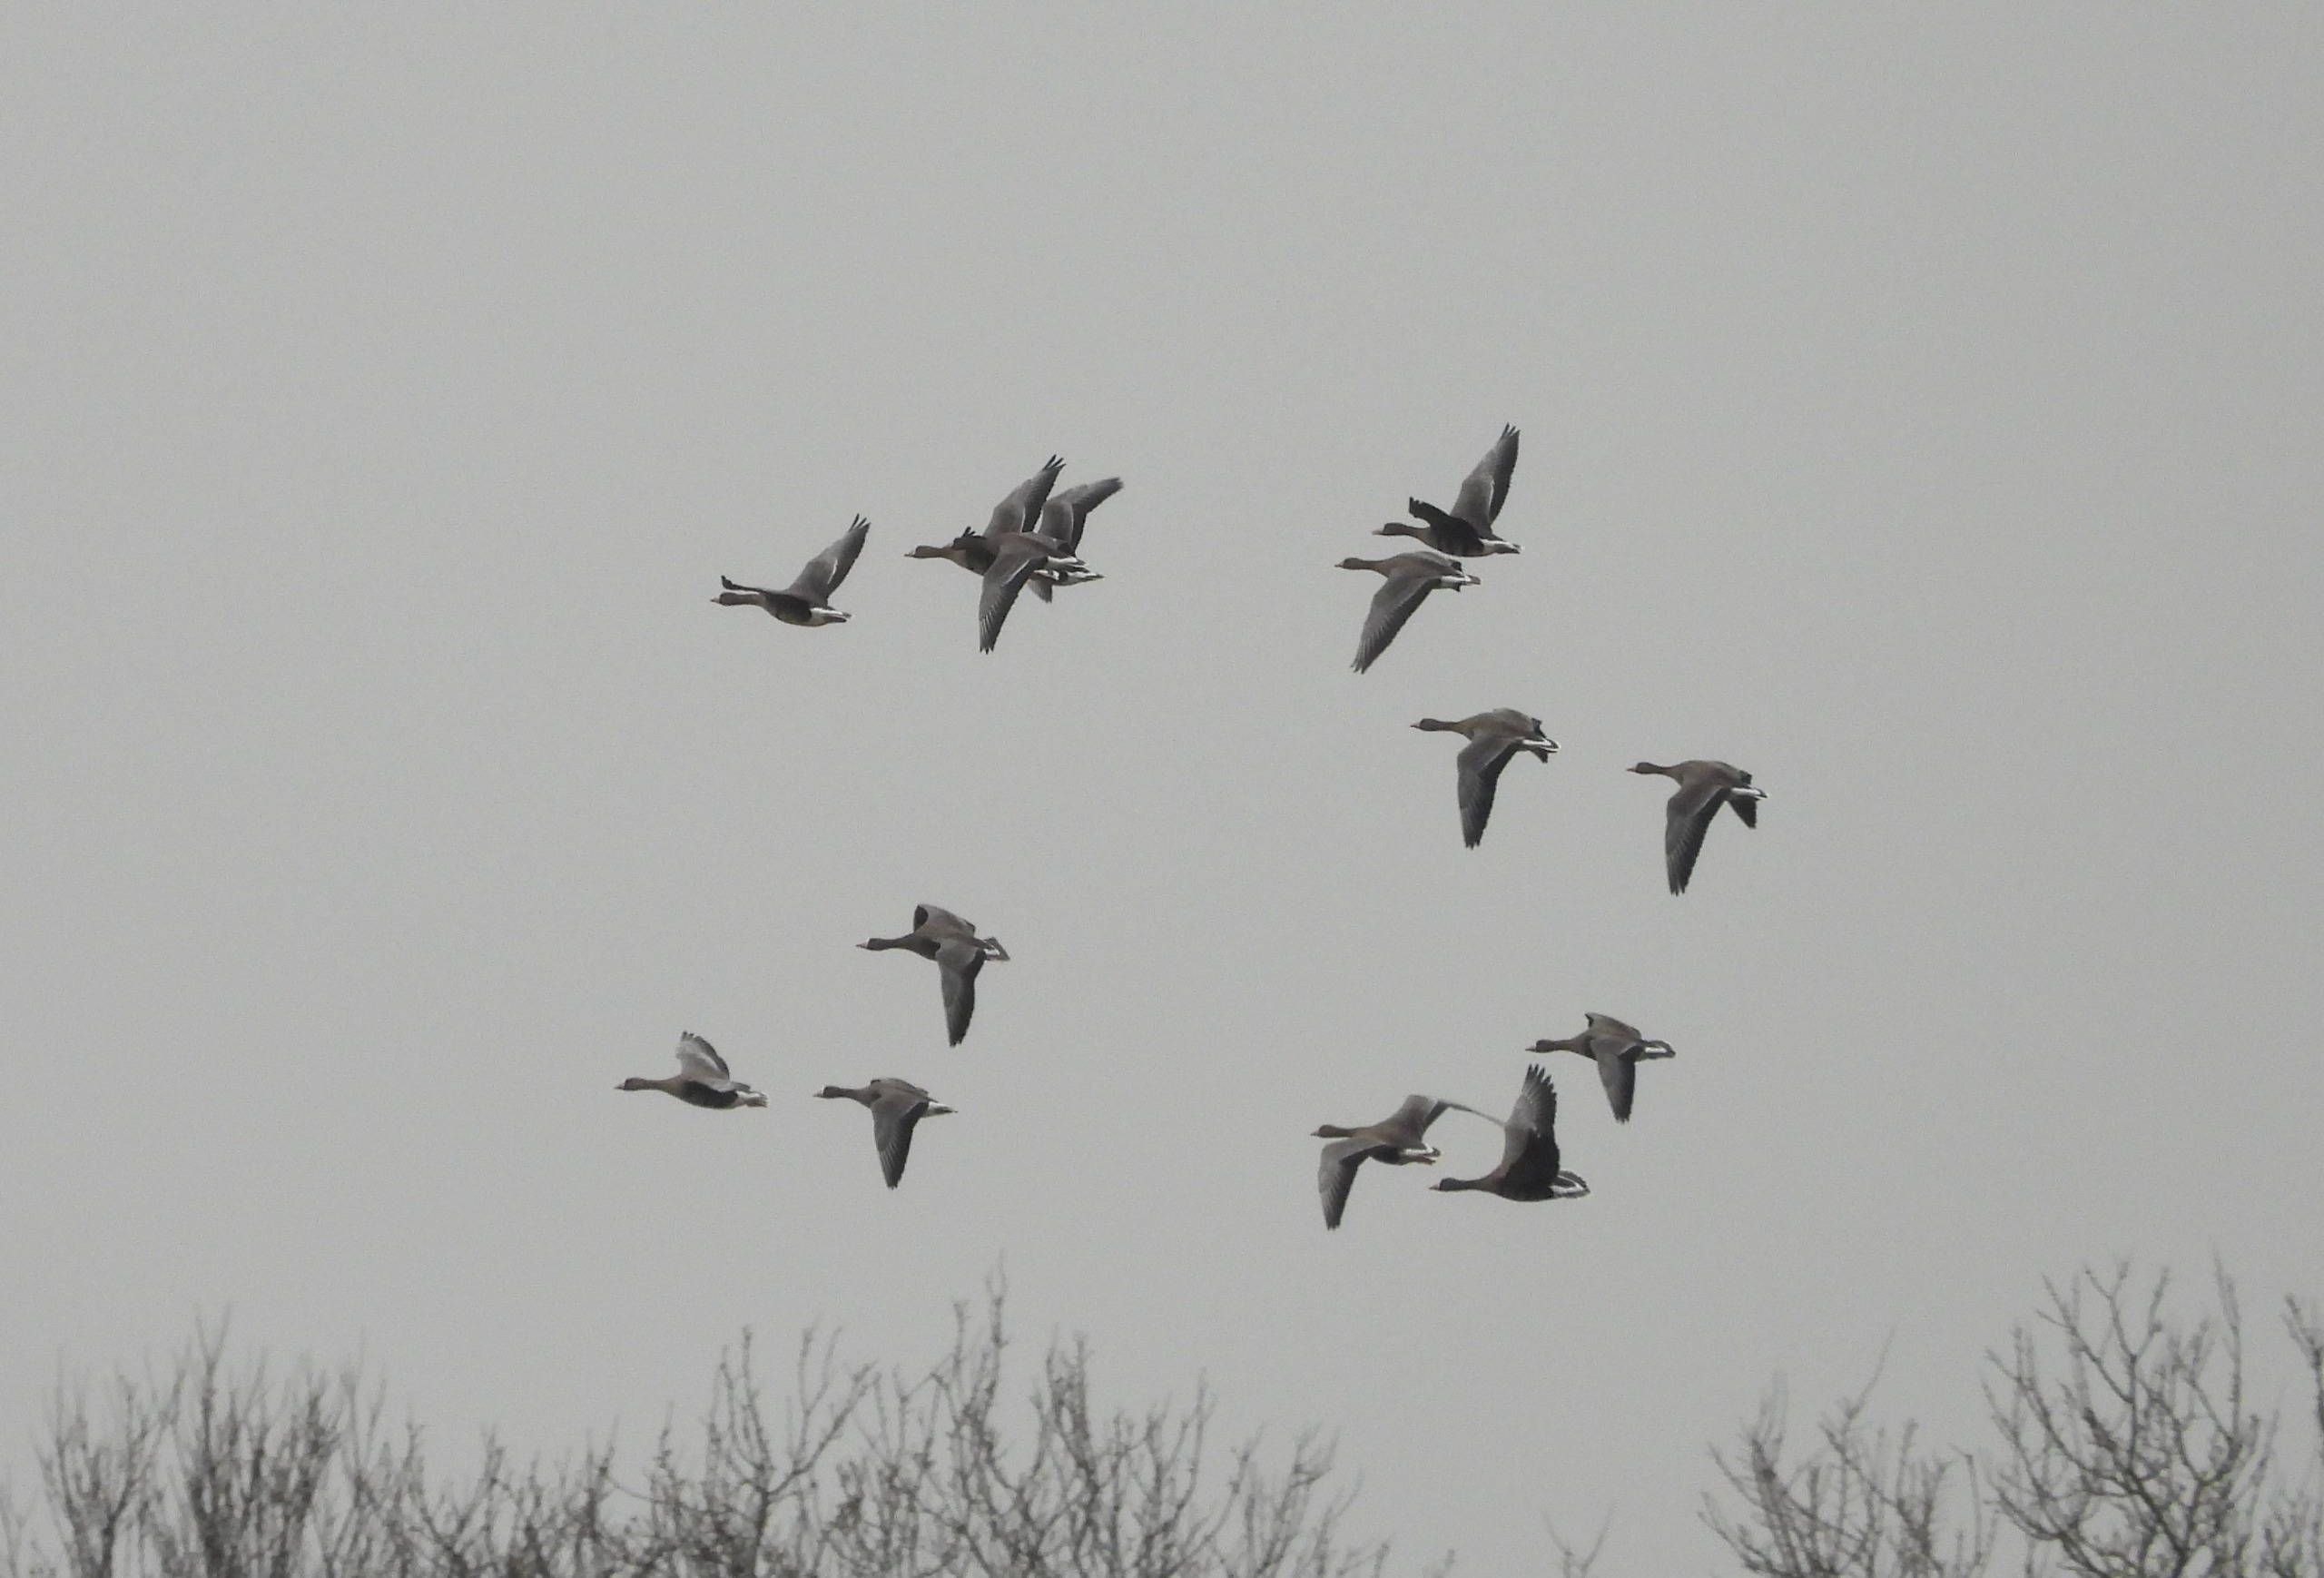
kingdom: Animalia
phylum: Chordata
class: Aves
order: Anseriformes
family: Anatidae
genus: Anser
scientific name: Anser albifrons
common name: Blisgås
